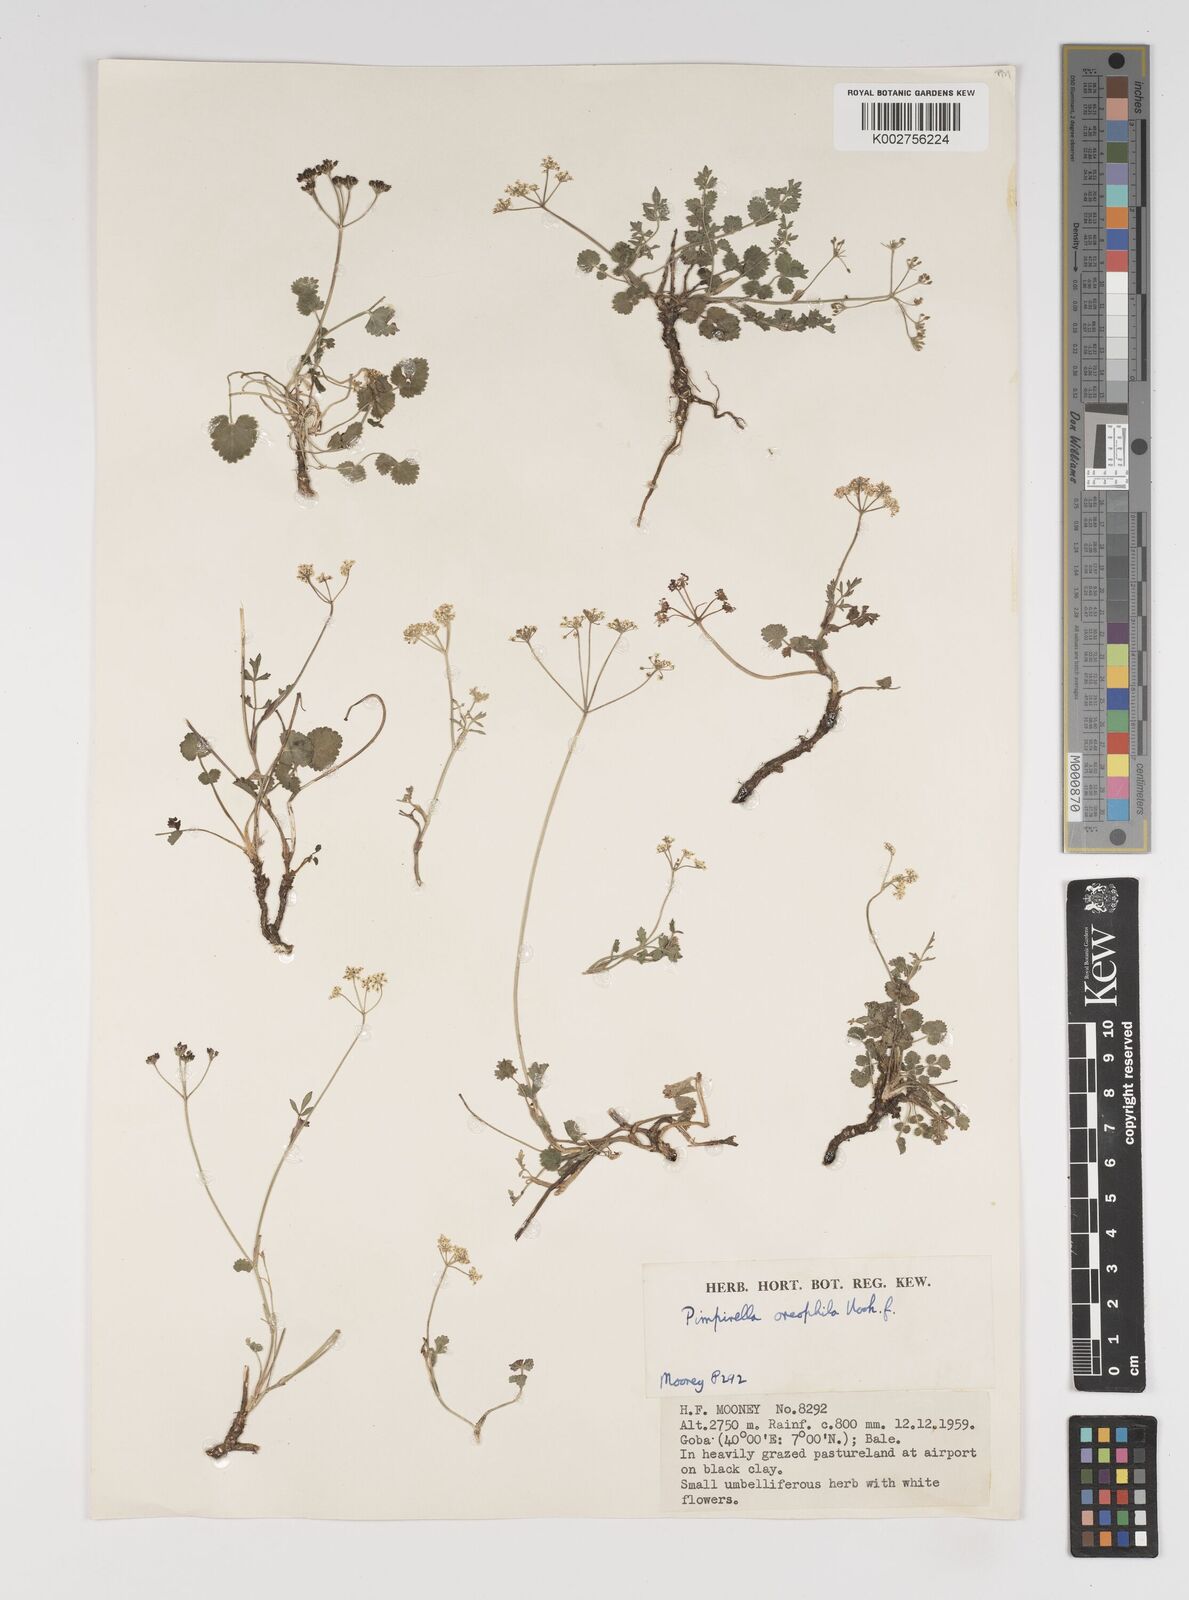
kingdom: Plantae
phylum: Tracheophyta
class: Magnoliopsida
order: Apiales
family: Apiaceae
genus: Pimpinella
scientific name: Pimpinella oreophila
